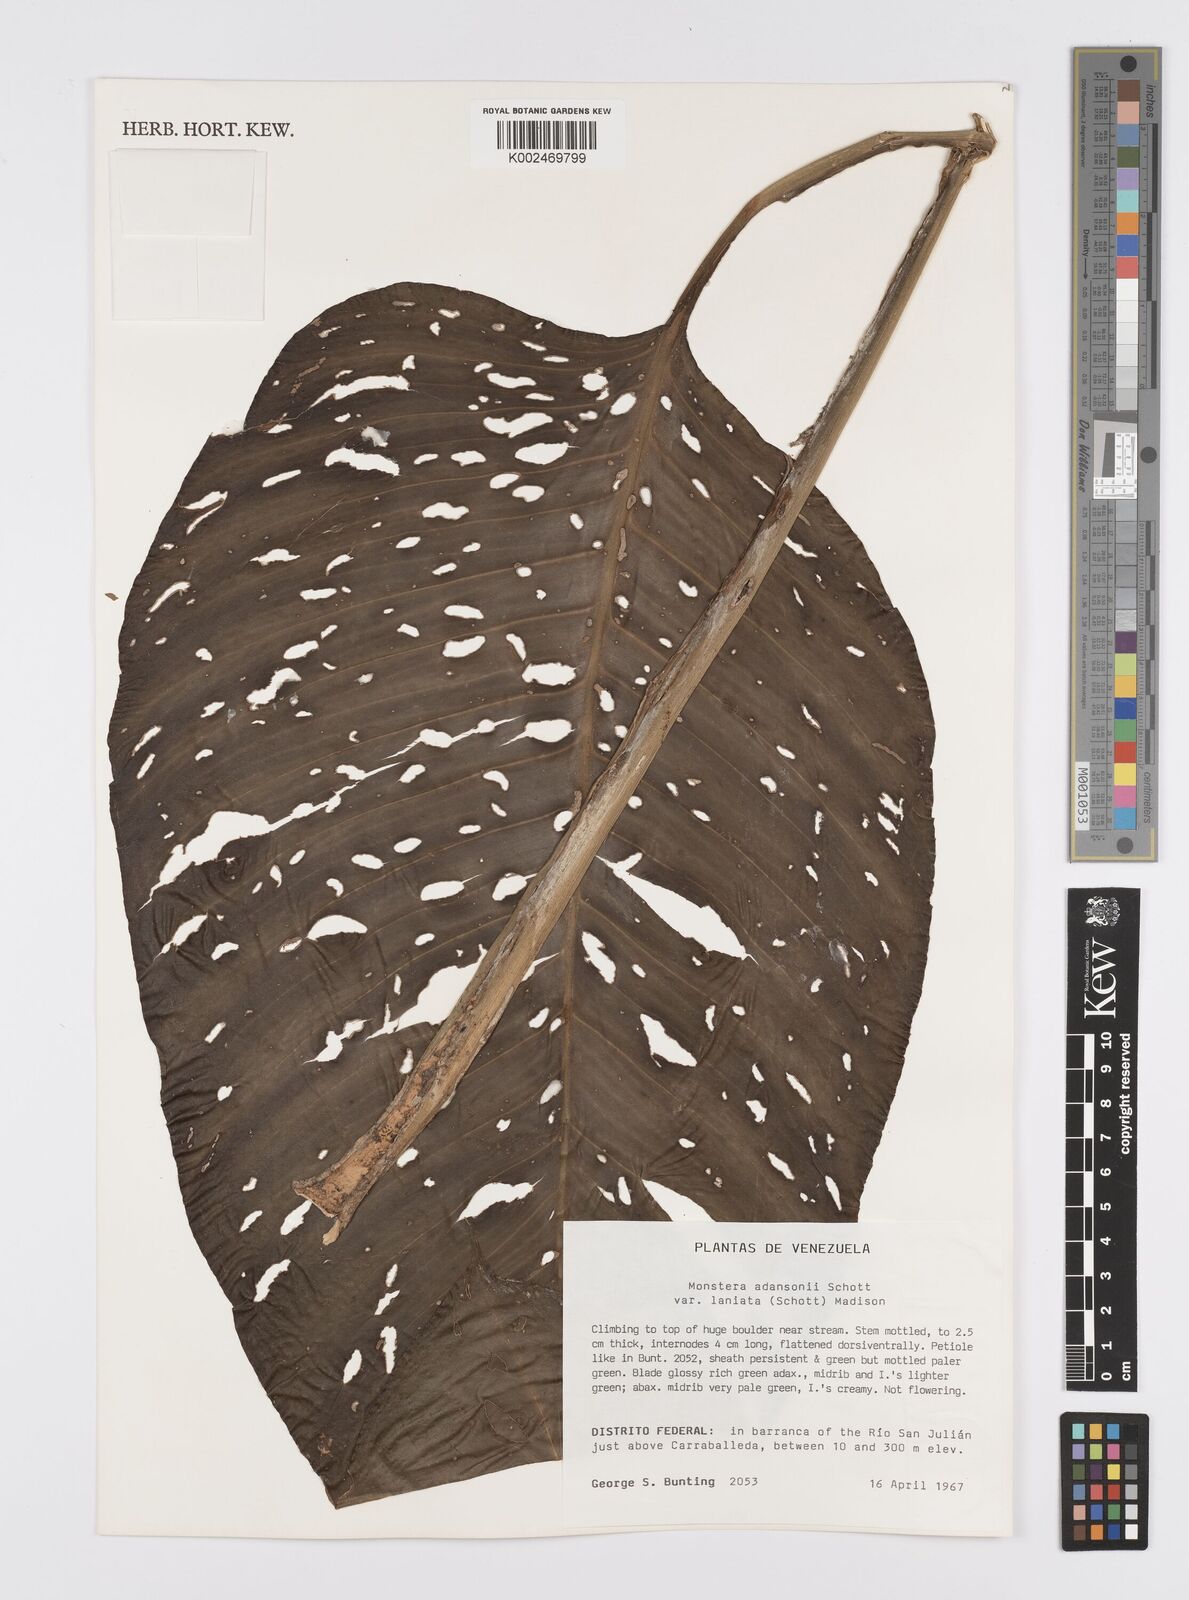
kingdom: Plantae
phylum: Tracheophyta
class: Liliopsida
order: Alismatales
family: Araceae
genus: Monstera
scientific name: Monstera adansonii
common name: Tarovine
